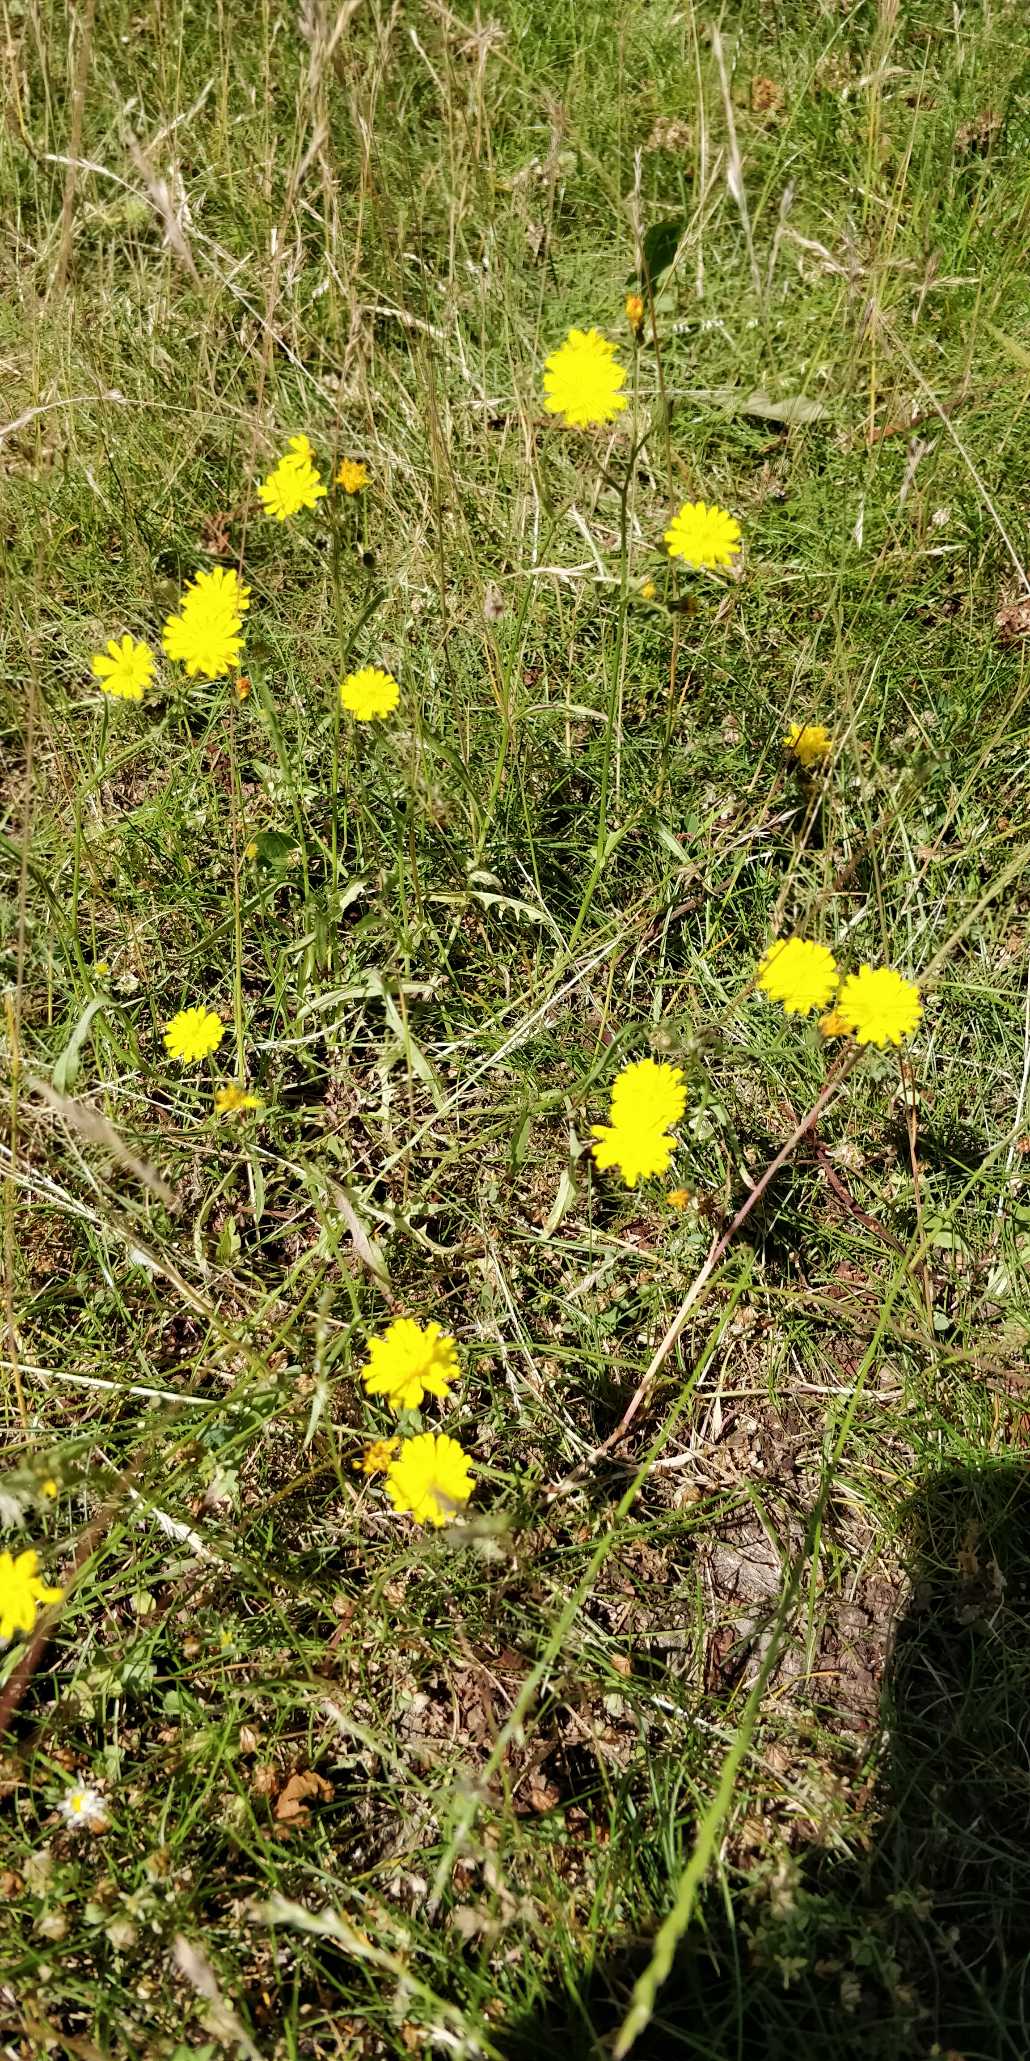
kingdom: Plantae
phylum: Tracheophyta
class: Magnoliopsida
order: Asterales
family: Asteraceae
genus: Crepis
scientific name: Crepis capillaris
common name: Grøn høgeskæg
